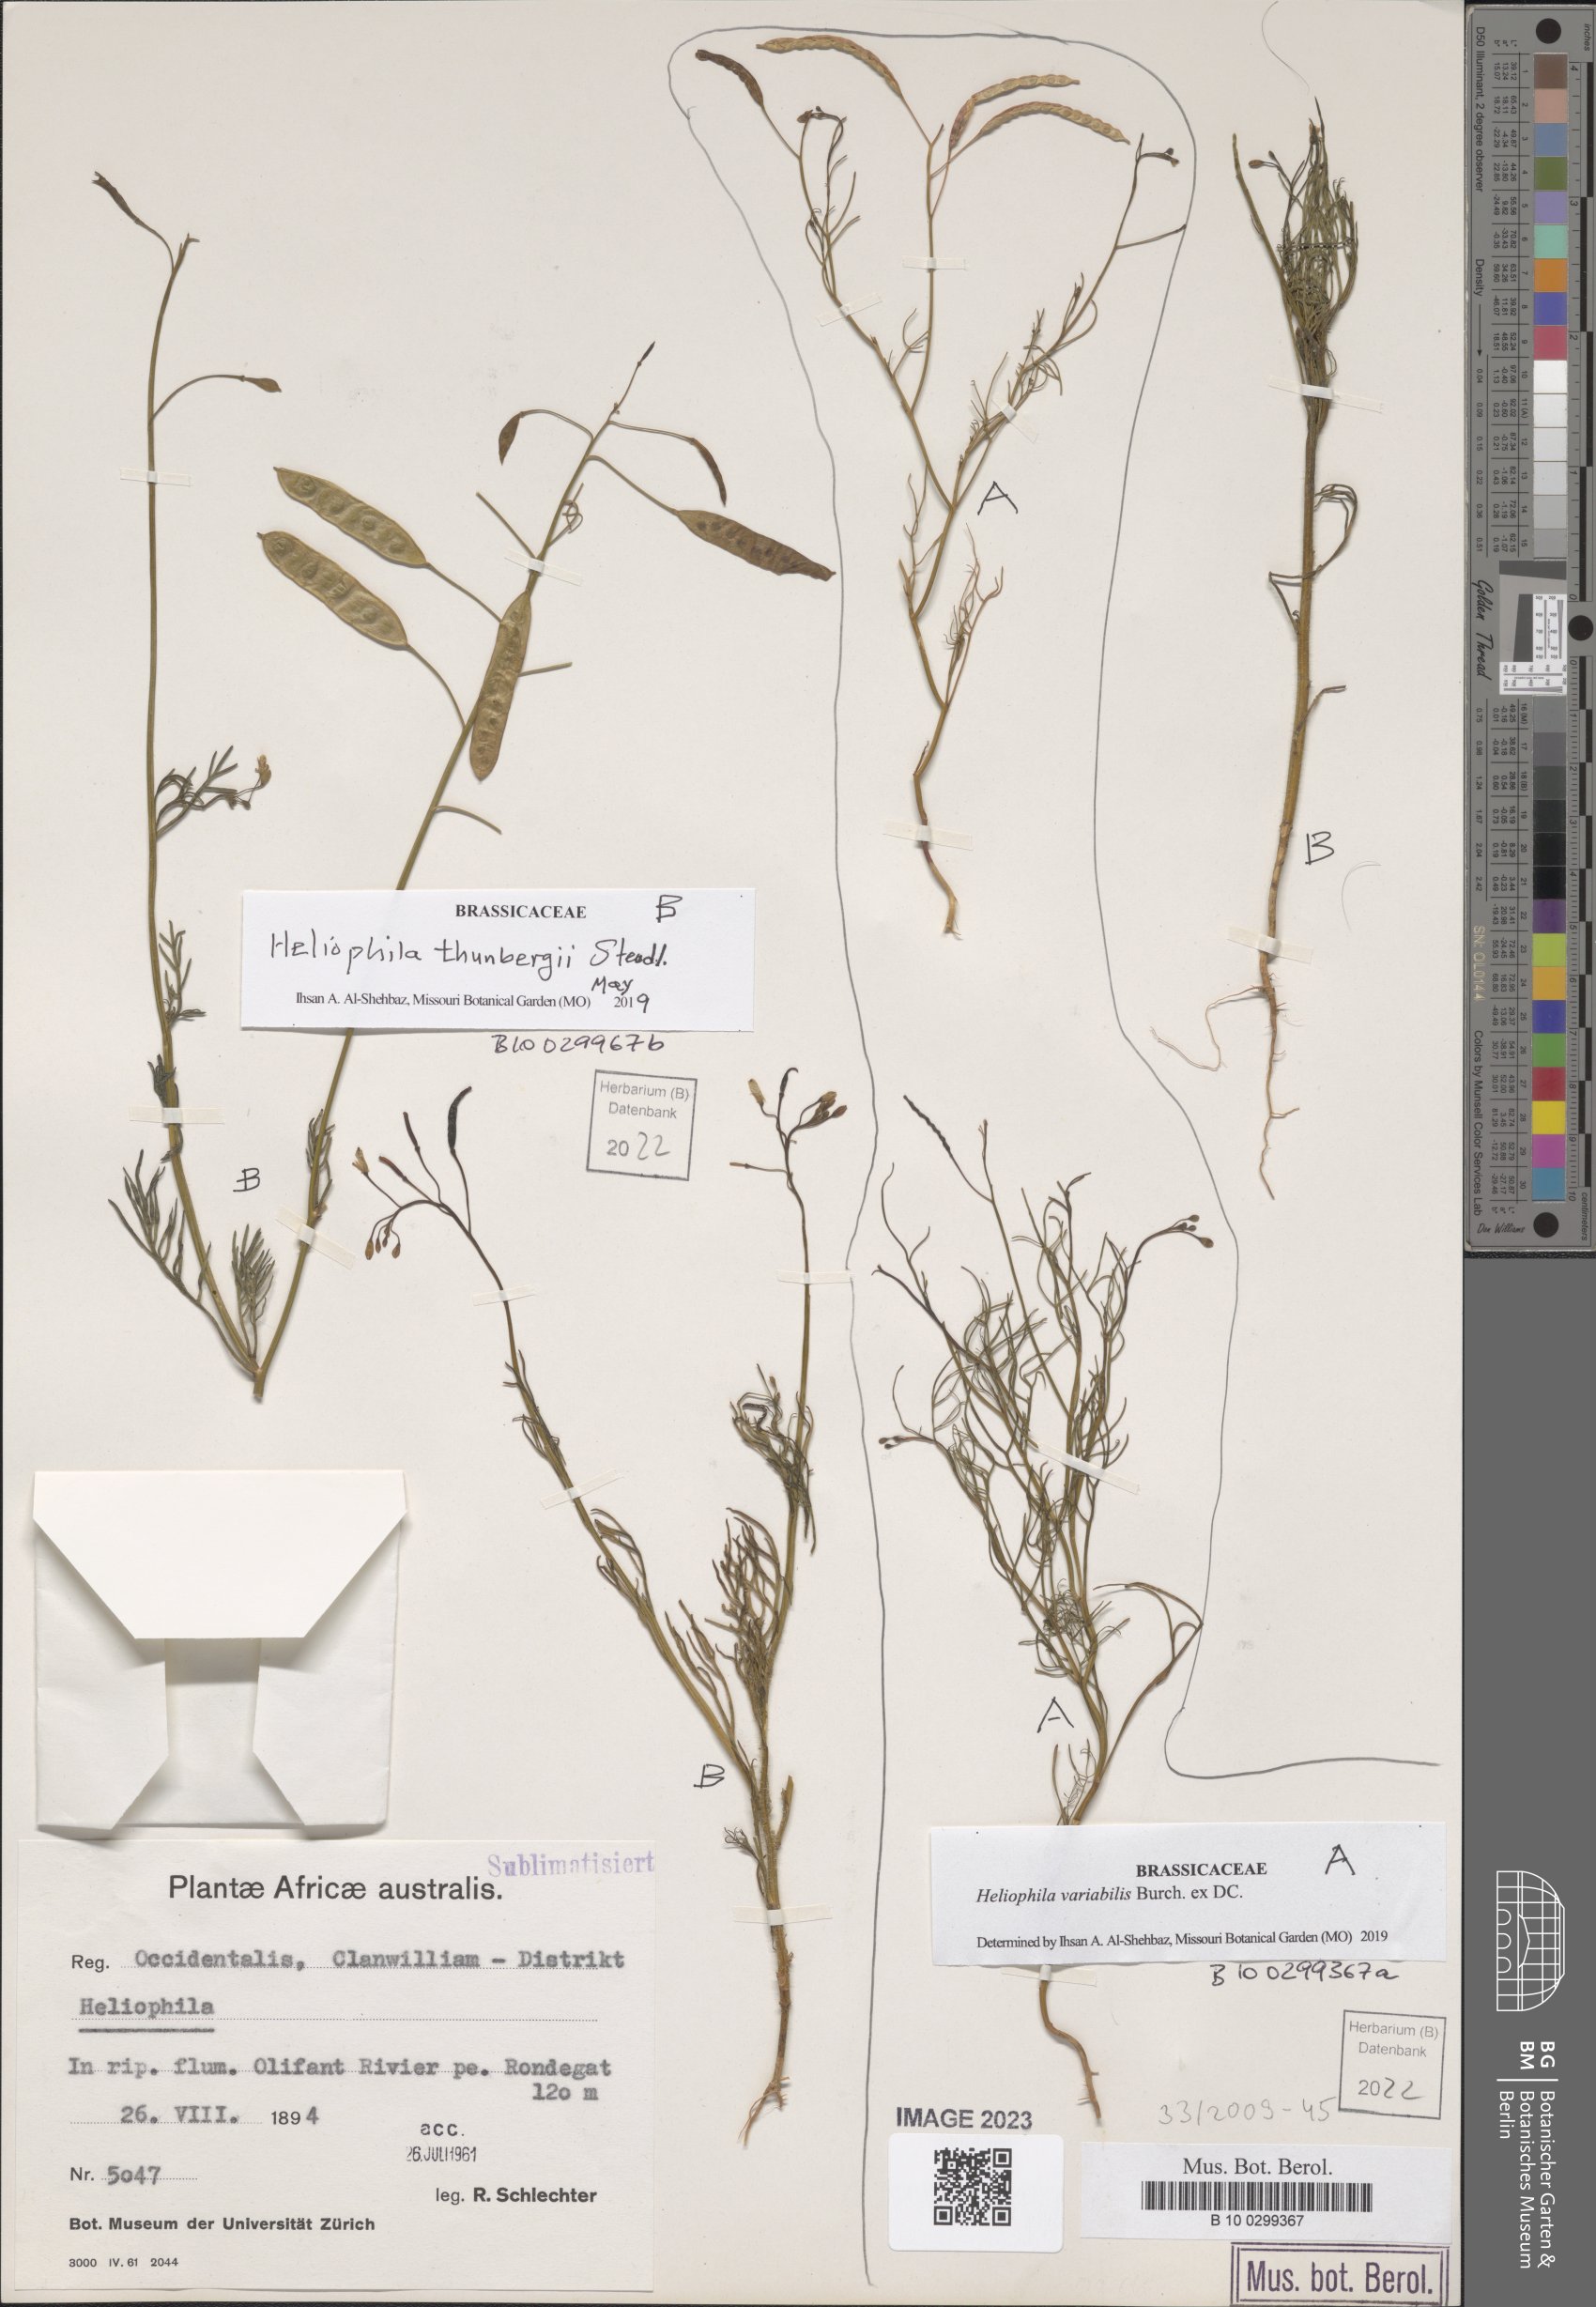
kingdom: Plantae
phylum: Tracheophyta
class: Magnoliopsida
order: Brassicales
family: Brassicaceae
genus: Heliophila
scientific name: Heliophila thunbergii
